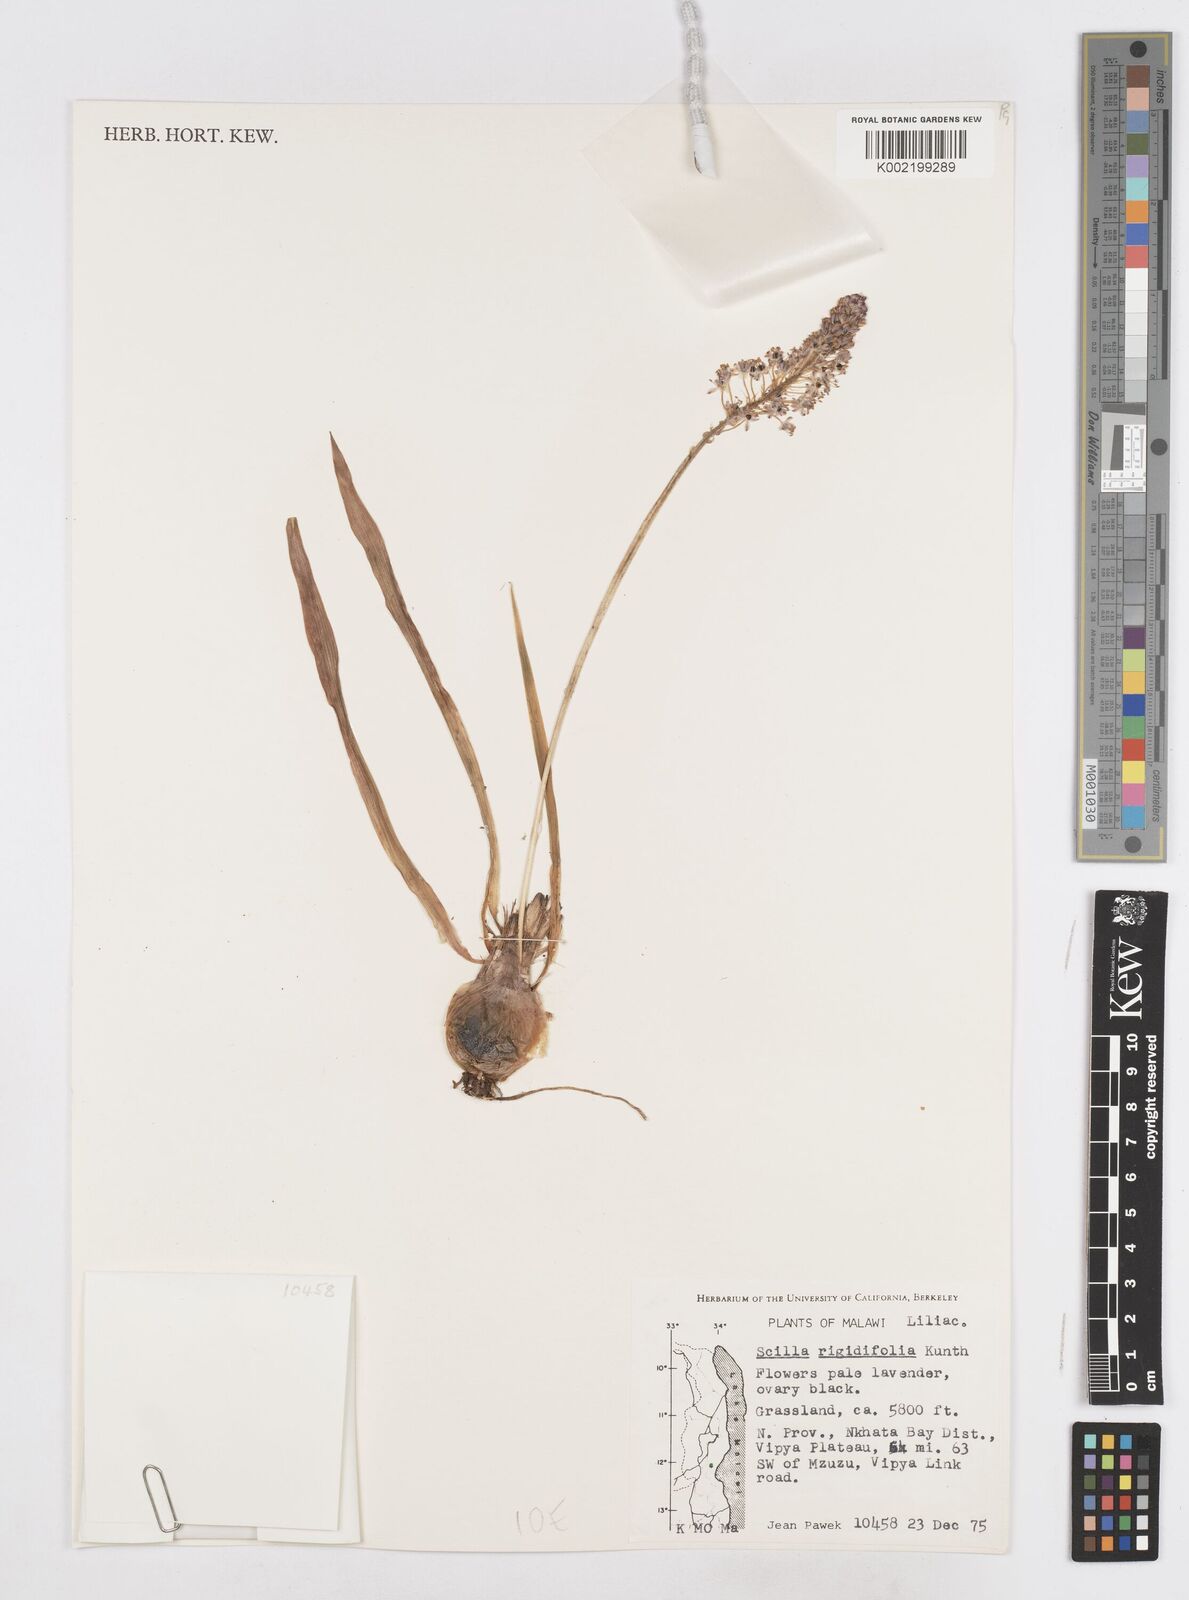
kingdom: Plantae
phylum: Tracheophyta
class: Liliopsida
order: Asparagales
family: Asparagaceae
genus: Schizocarphus
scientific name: Schizocarphus nervosus
